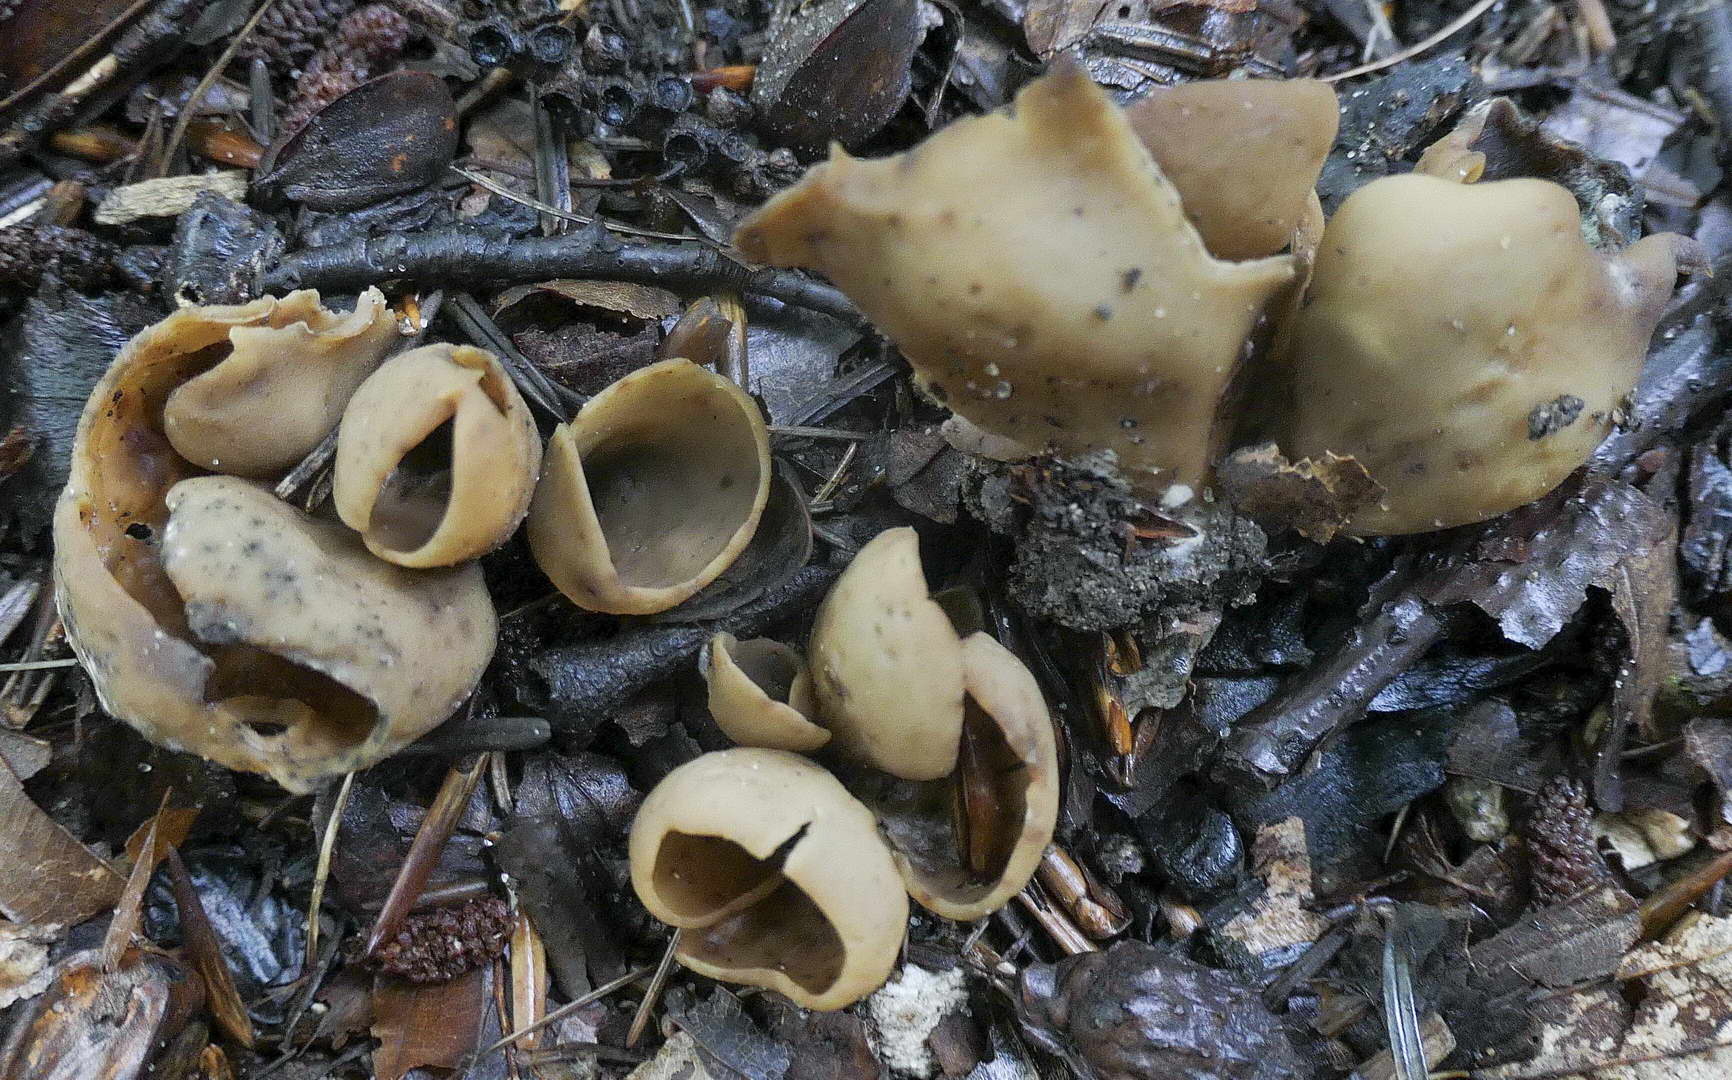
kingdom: Fungi
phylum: Ascomycota
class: Pezizomycetes
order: Pezizales
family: Otideaceae
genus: Otidea
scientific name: Otidea alutacea
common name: læder-ørebæger
